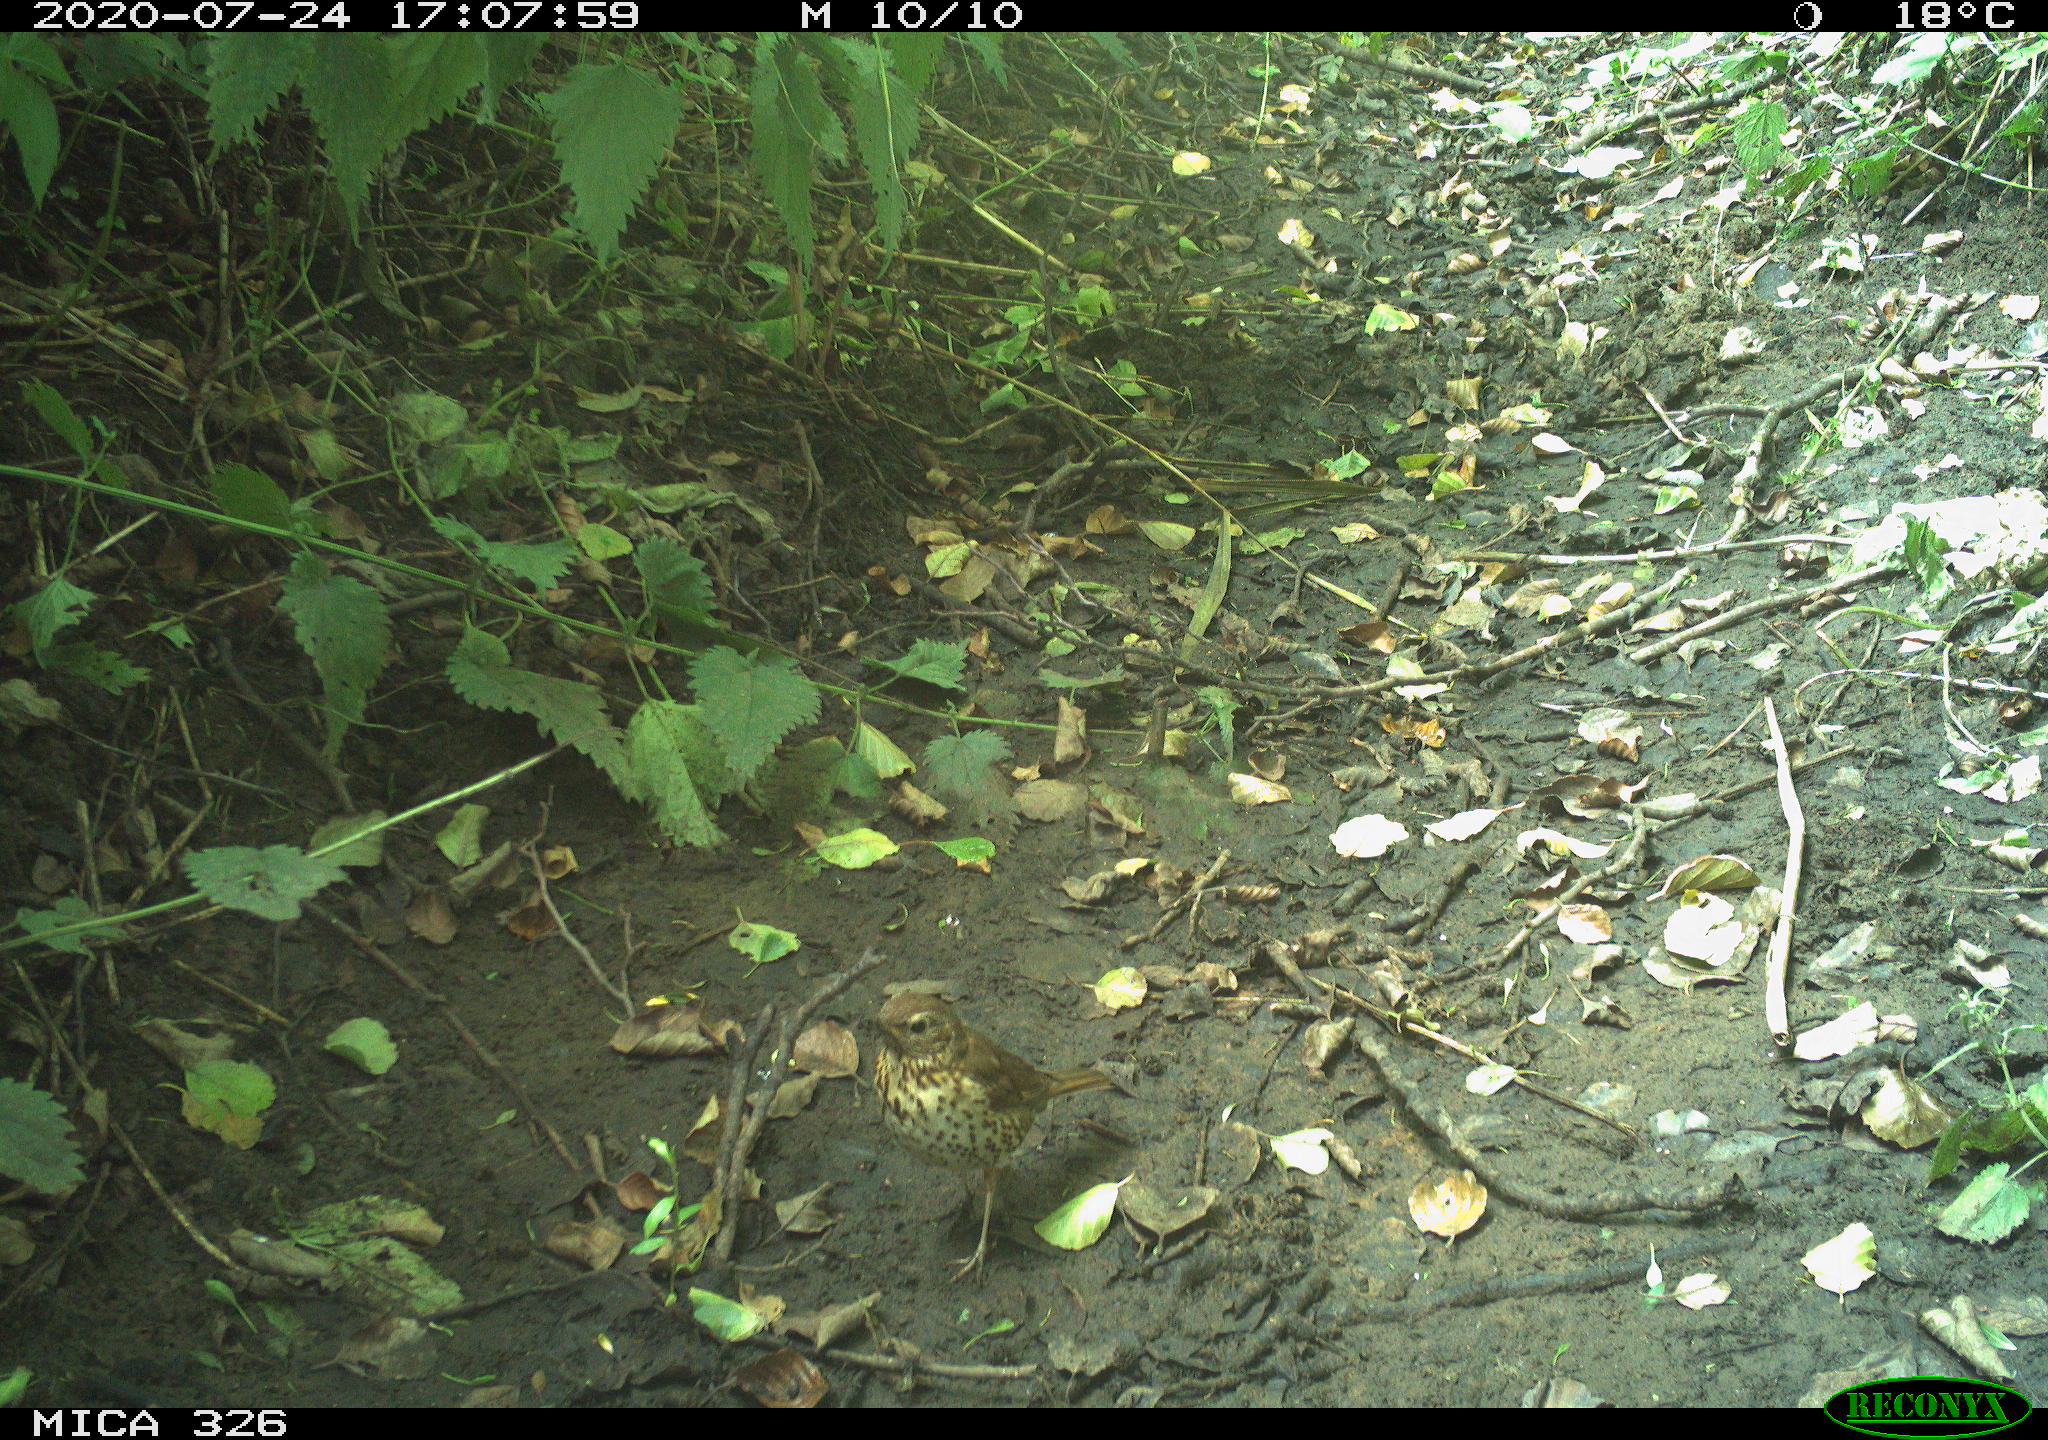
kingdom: Animalia
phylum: Chordata
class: Aves
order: Passeriformes
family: Turdidae
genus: Turdus
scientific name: Turdus philomelos
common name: Song thrush
